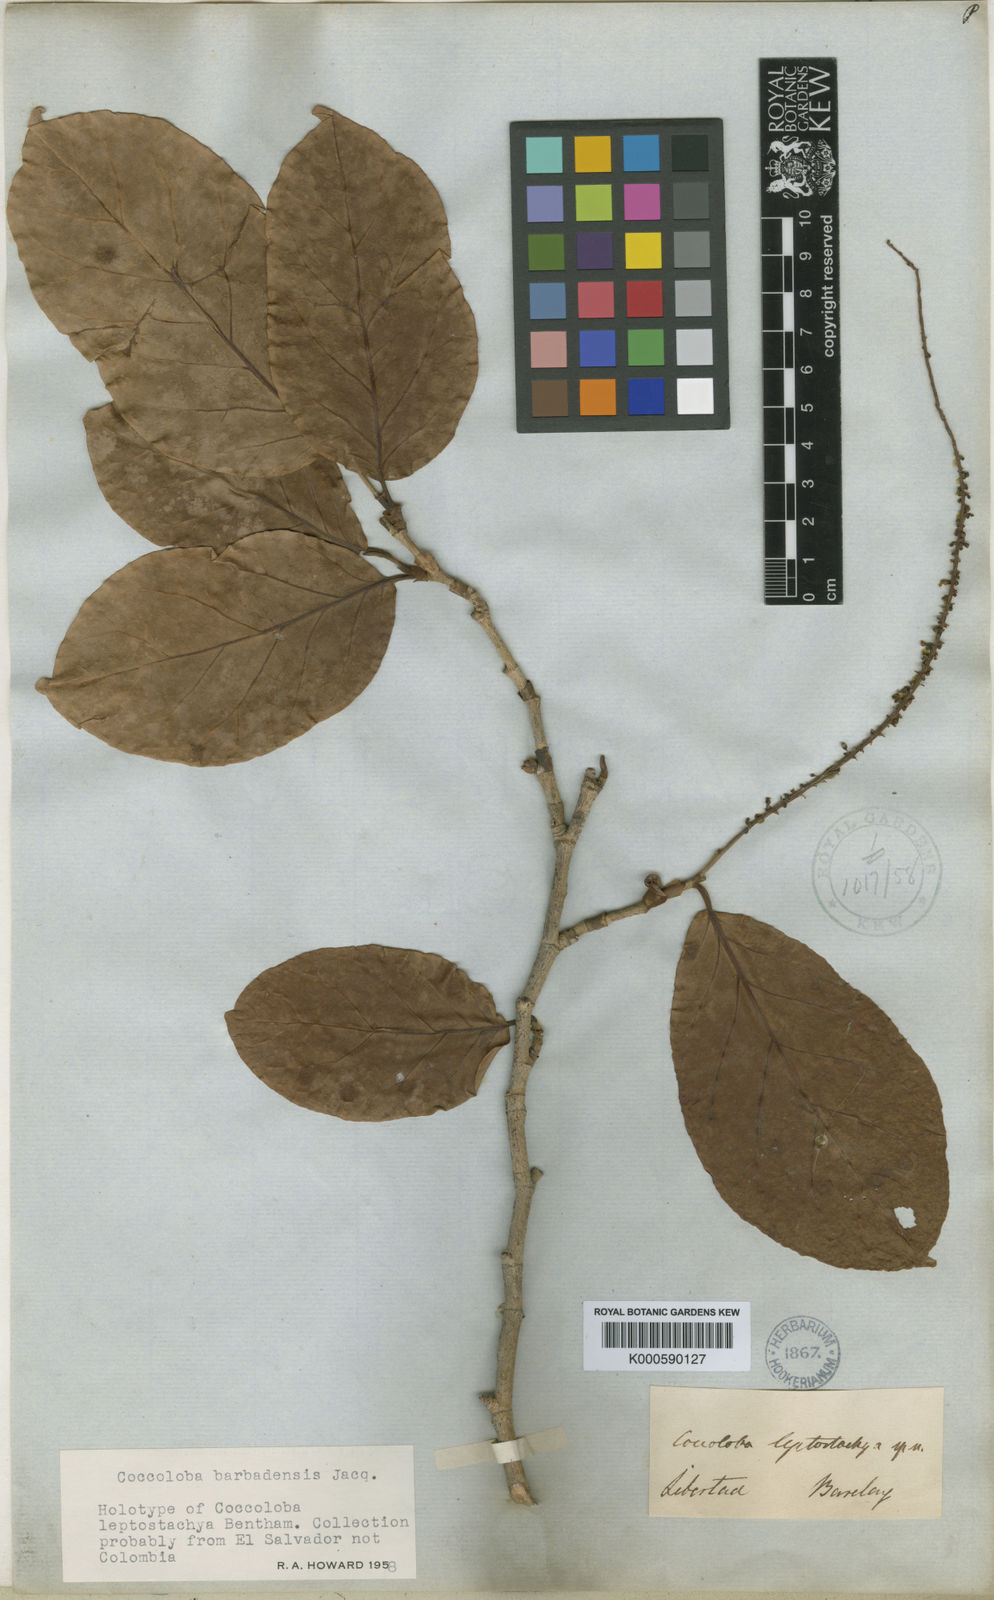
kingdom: Plantae
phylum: Tracheophyta
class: Magnoliopsida
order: Caryophyllales
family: Polygonaceae
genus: Coccoloba
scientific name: Coccoloba excelsa
